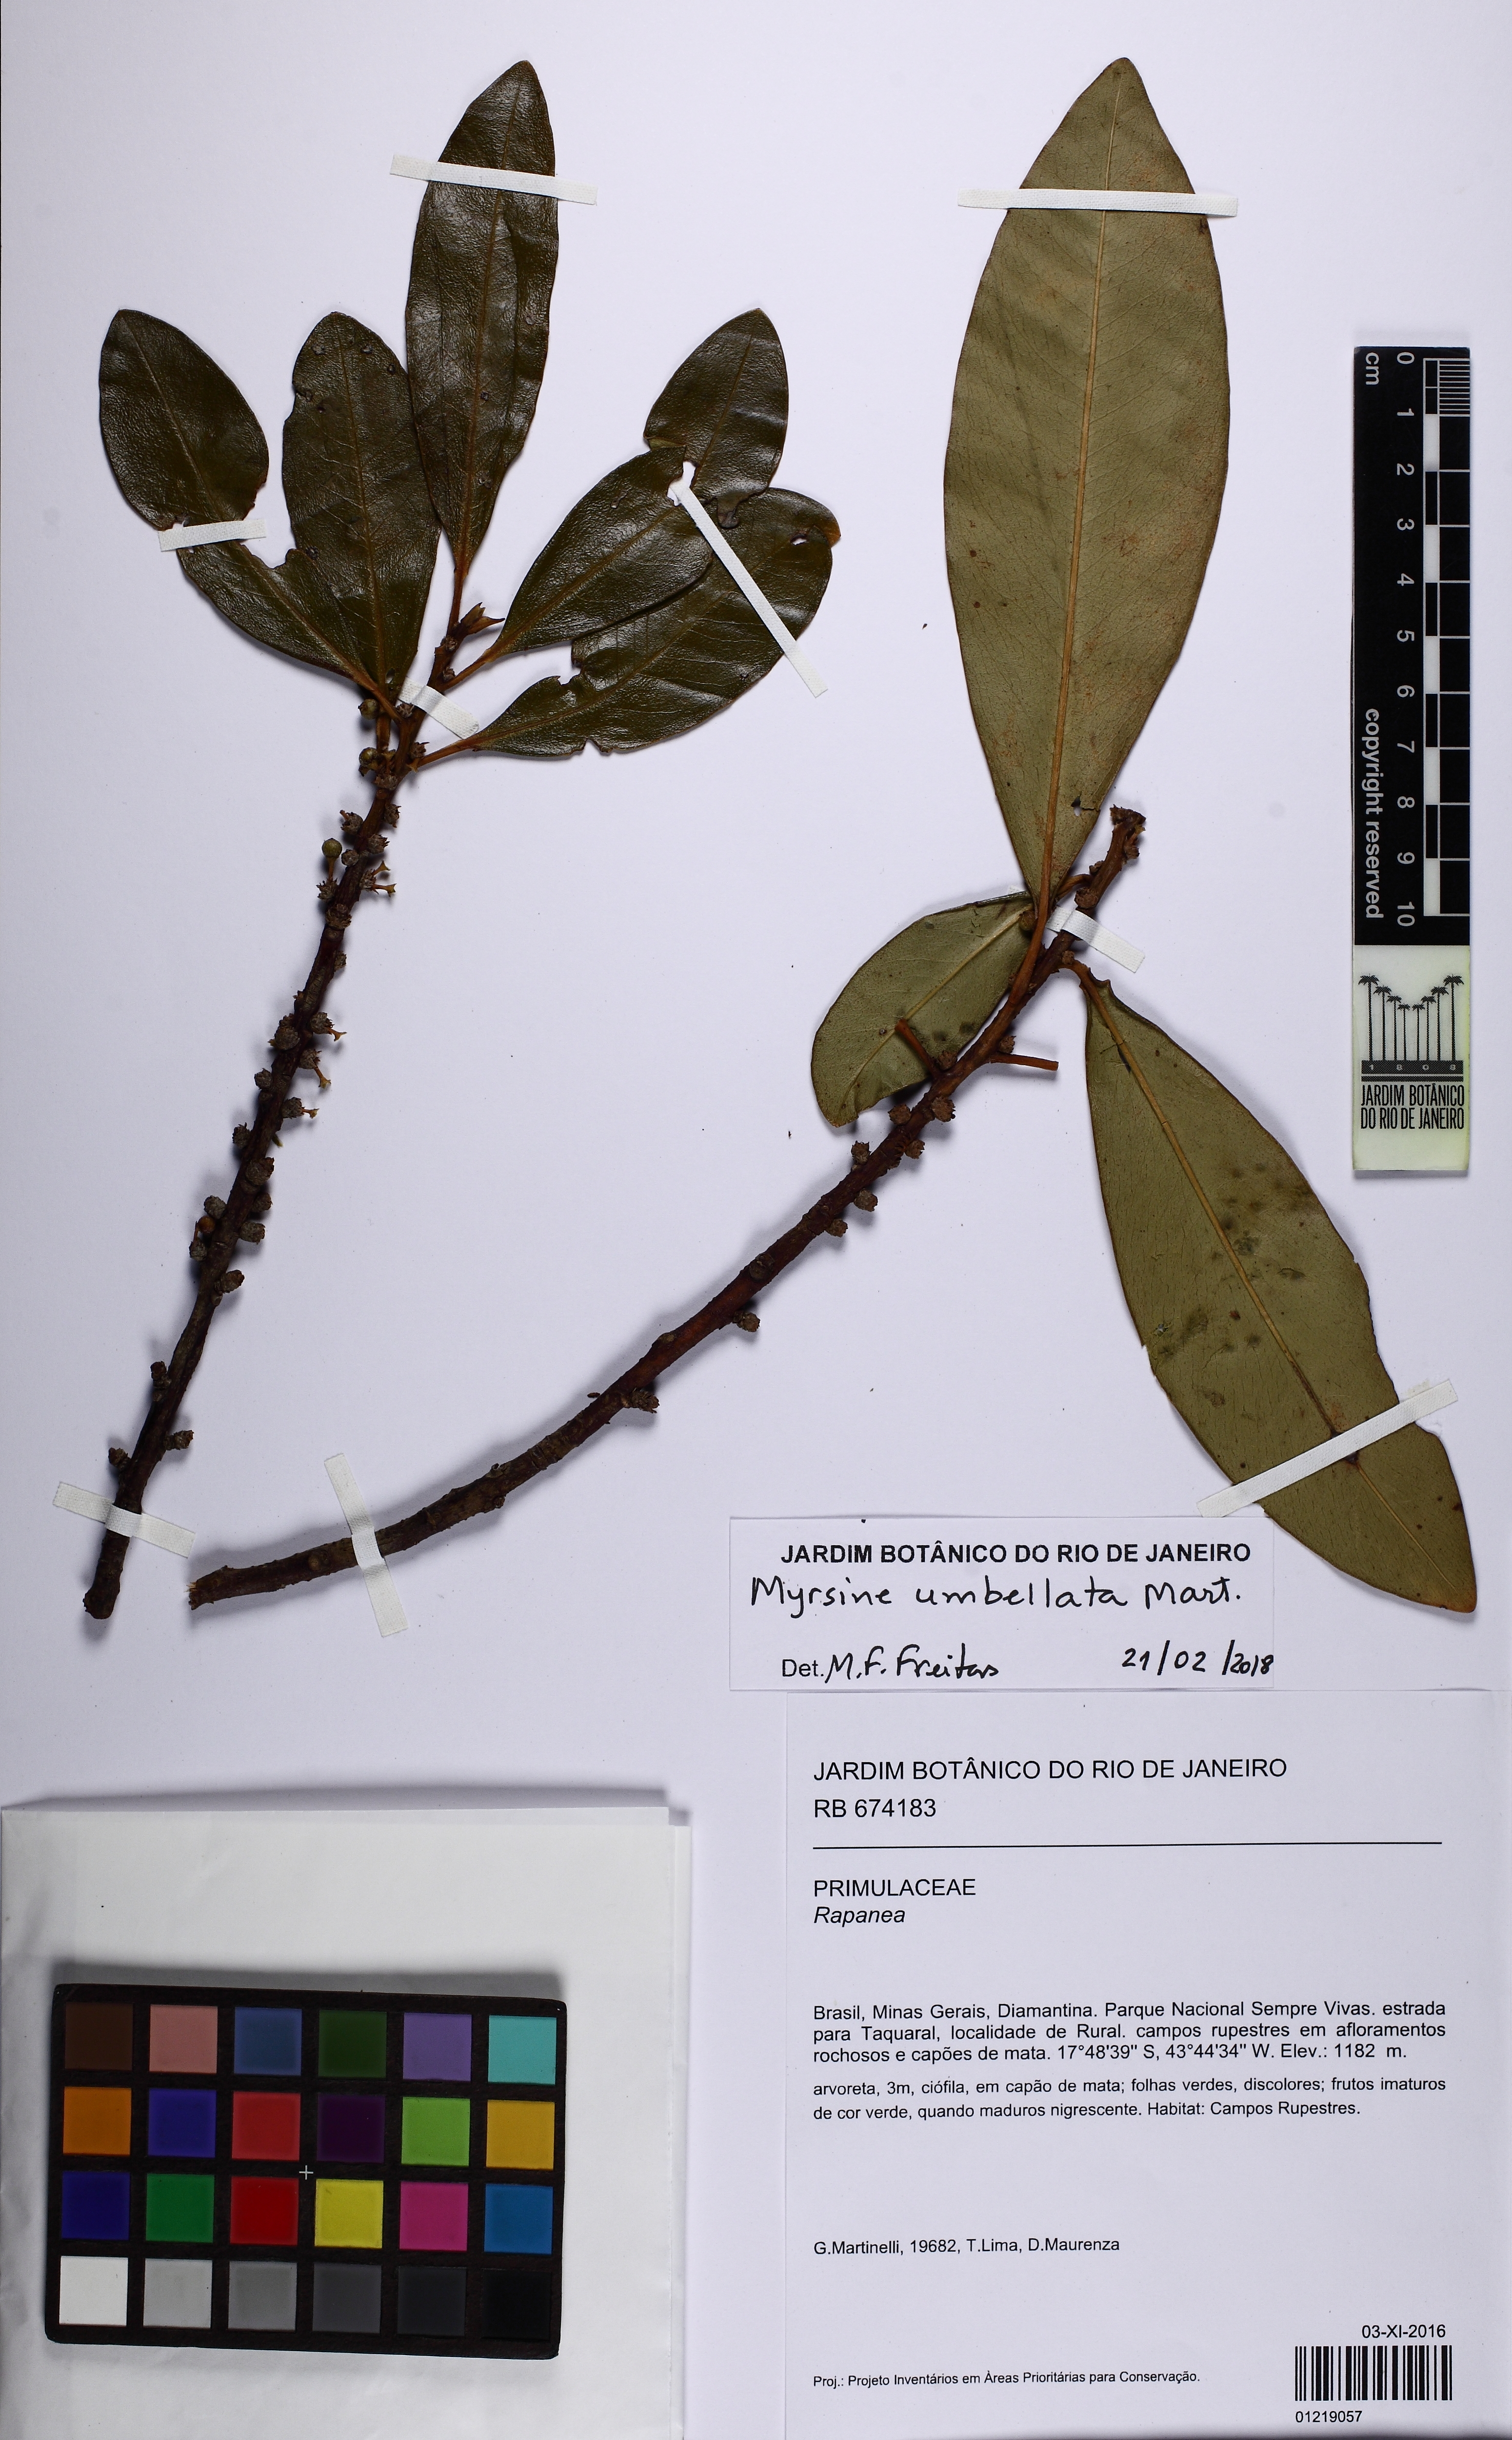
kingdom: Plantae
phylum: Tracheophyta
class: Magnoliopsida
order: Ericales
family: Primulaceae
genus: Myrsine
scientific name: Myrsine umbellata
